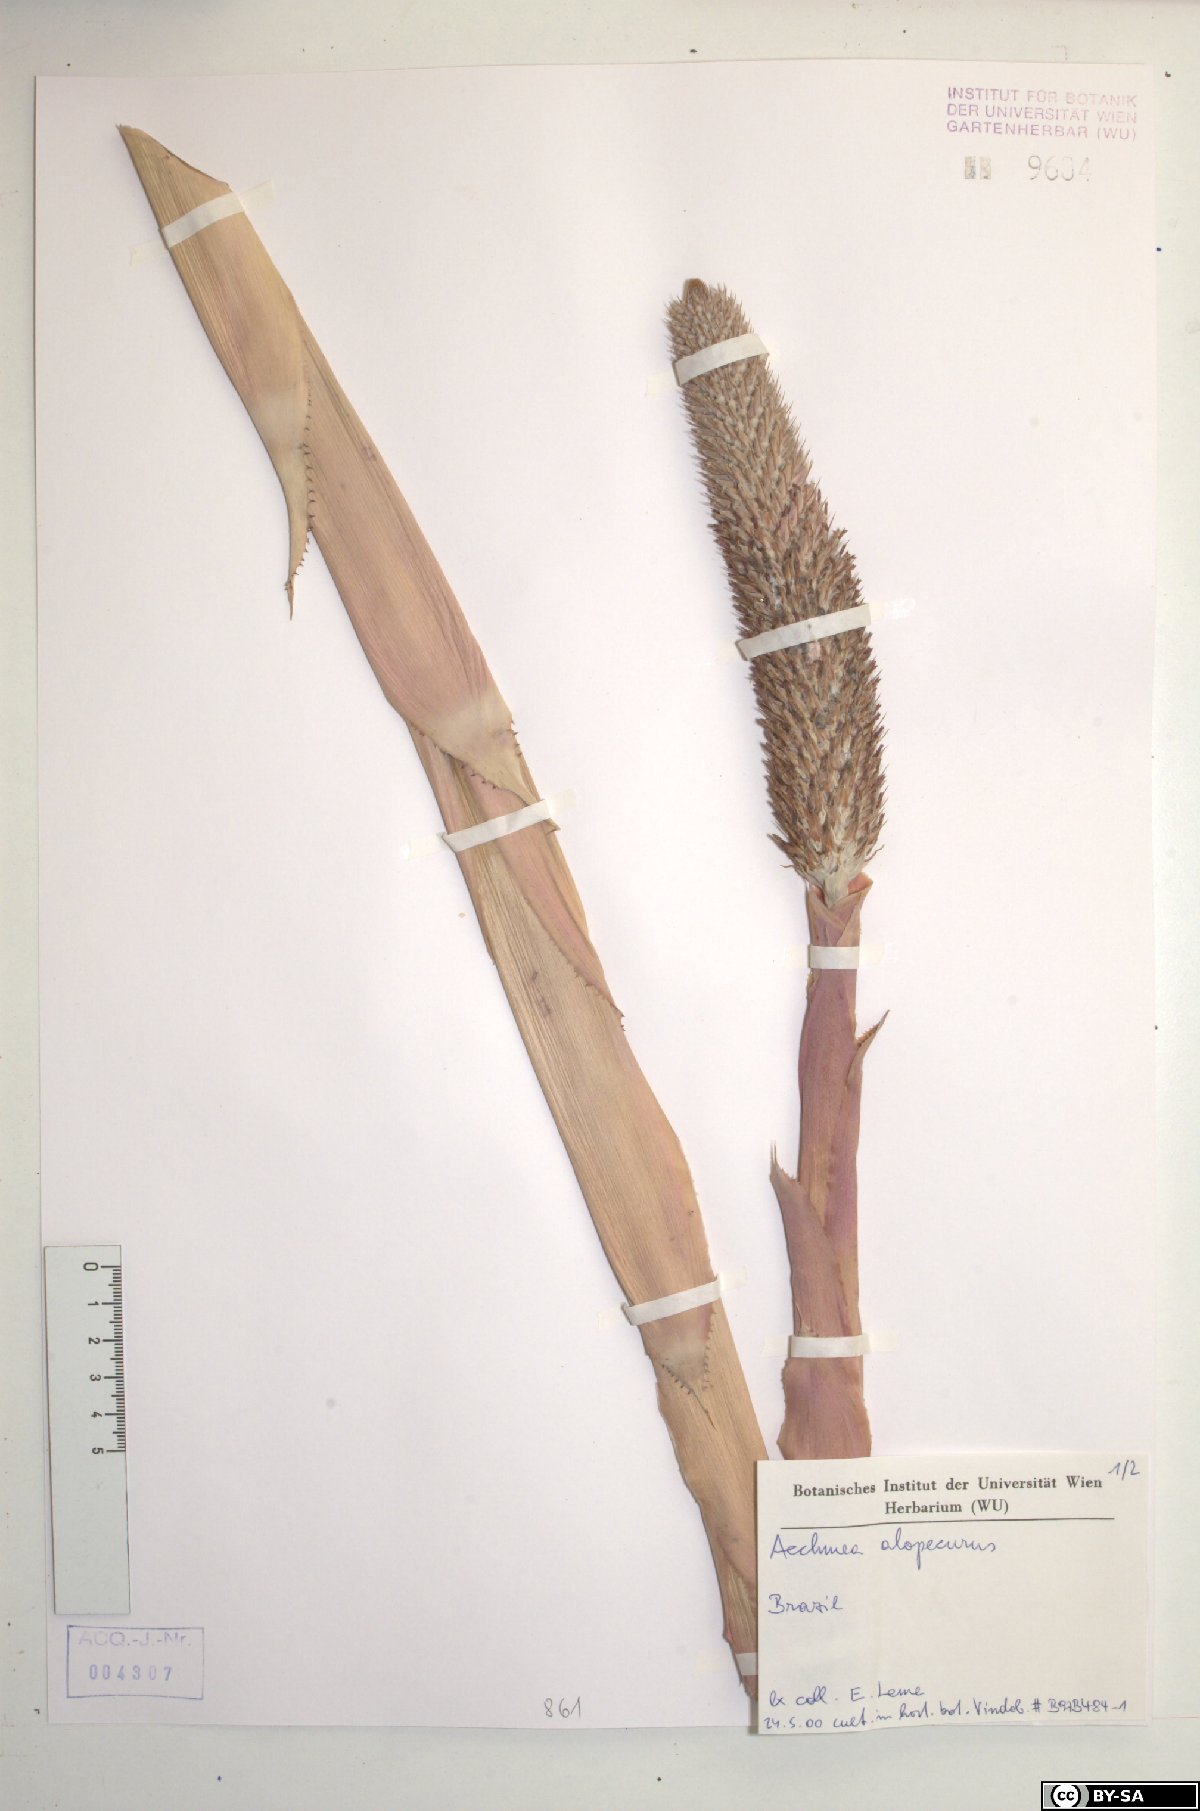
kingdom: Plantae
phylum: Tracheophyta
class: Liliopsida
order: Poales
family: Bromeliaceae
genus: Aechmea
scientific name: Aechmea alopecurus
